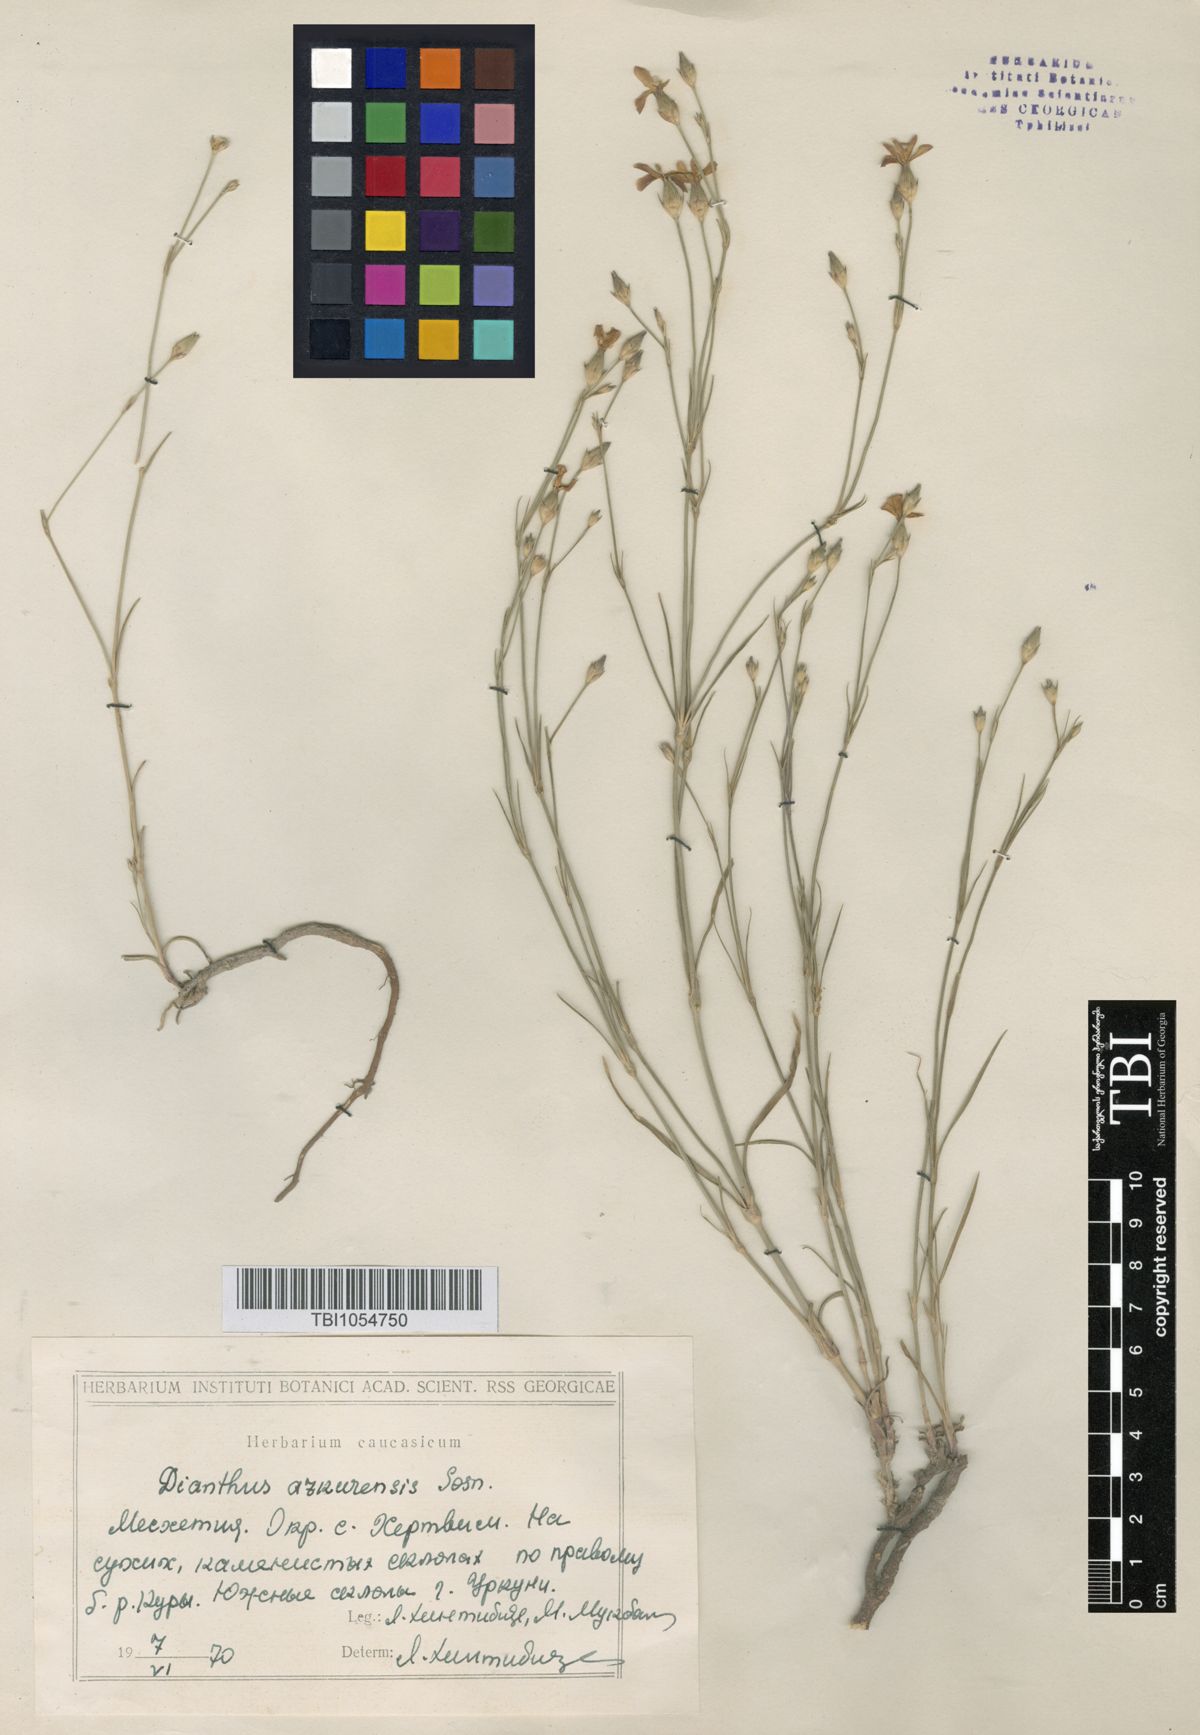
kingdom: Plantae
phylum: Tracheophyta
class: Magnoliopsida
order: Caryophyllales
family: Caryophyllaceae
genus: Dianthus
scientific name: Dianthus
